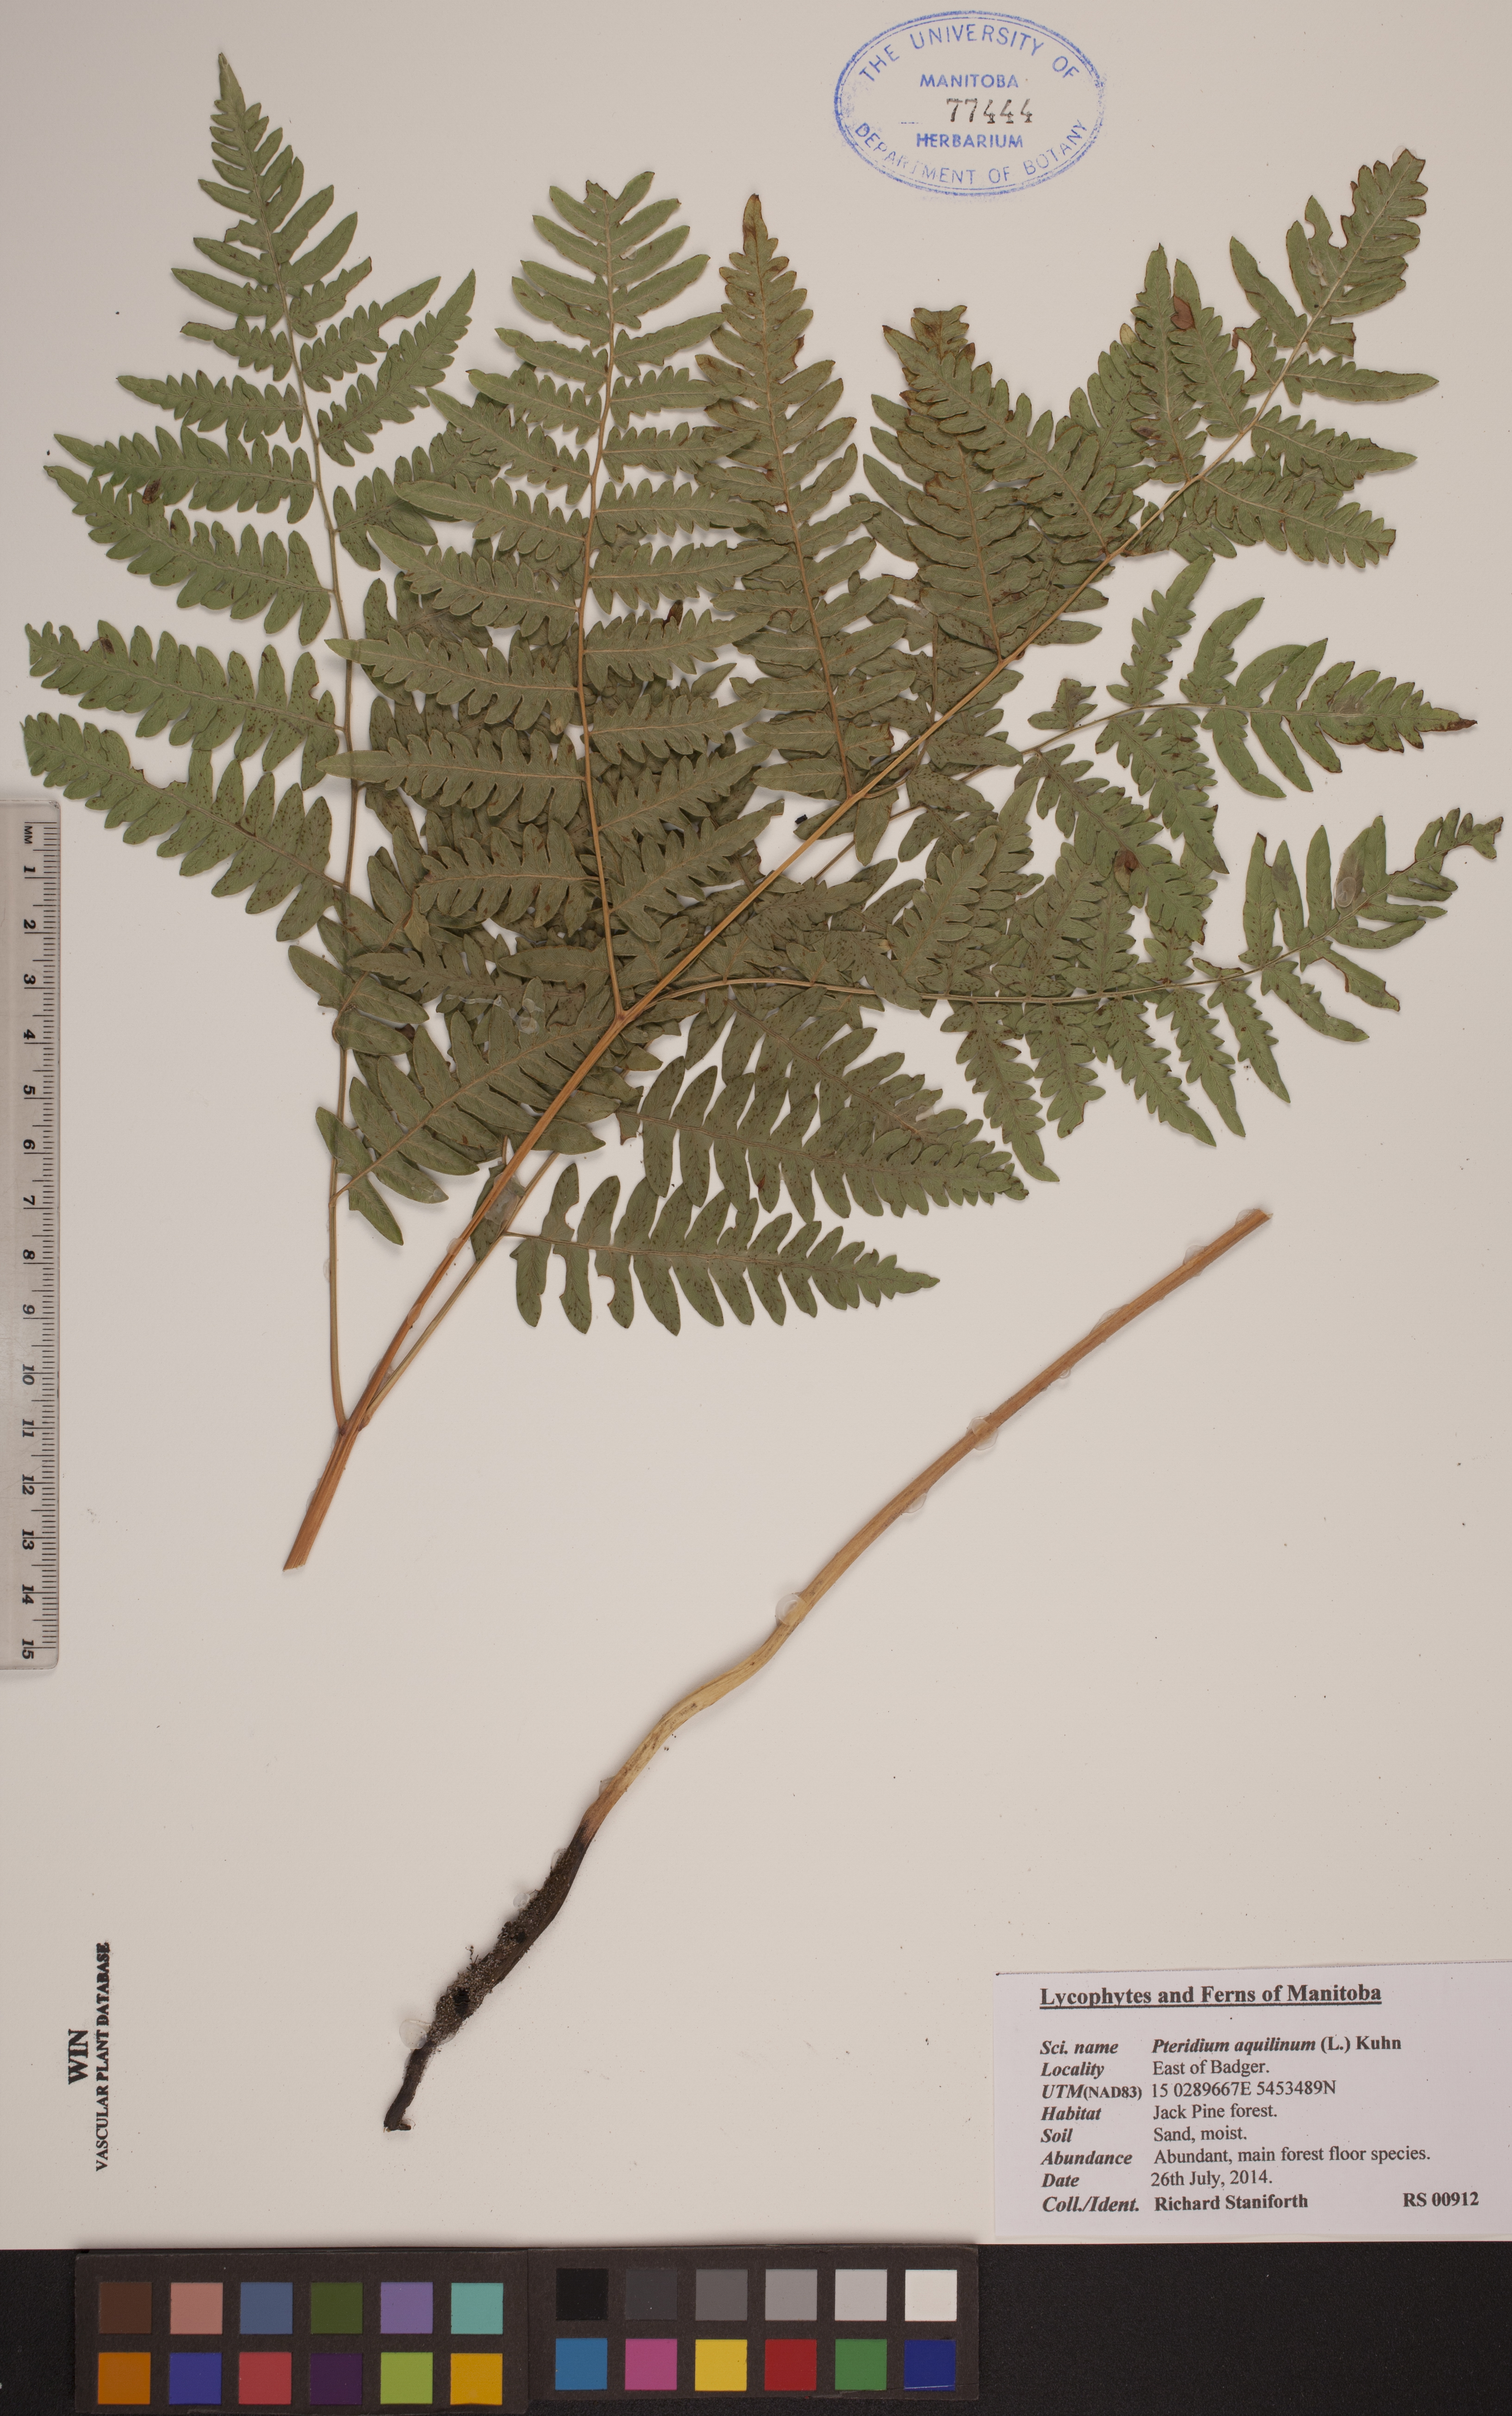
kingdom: Plantae
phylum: Tracheophyta
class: Polypodiopsida
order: Polypodiales
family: Dennstaedtiaceae
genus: Pteridium
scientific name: Pteridium aquilinum
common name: Bracken
